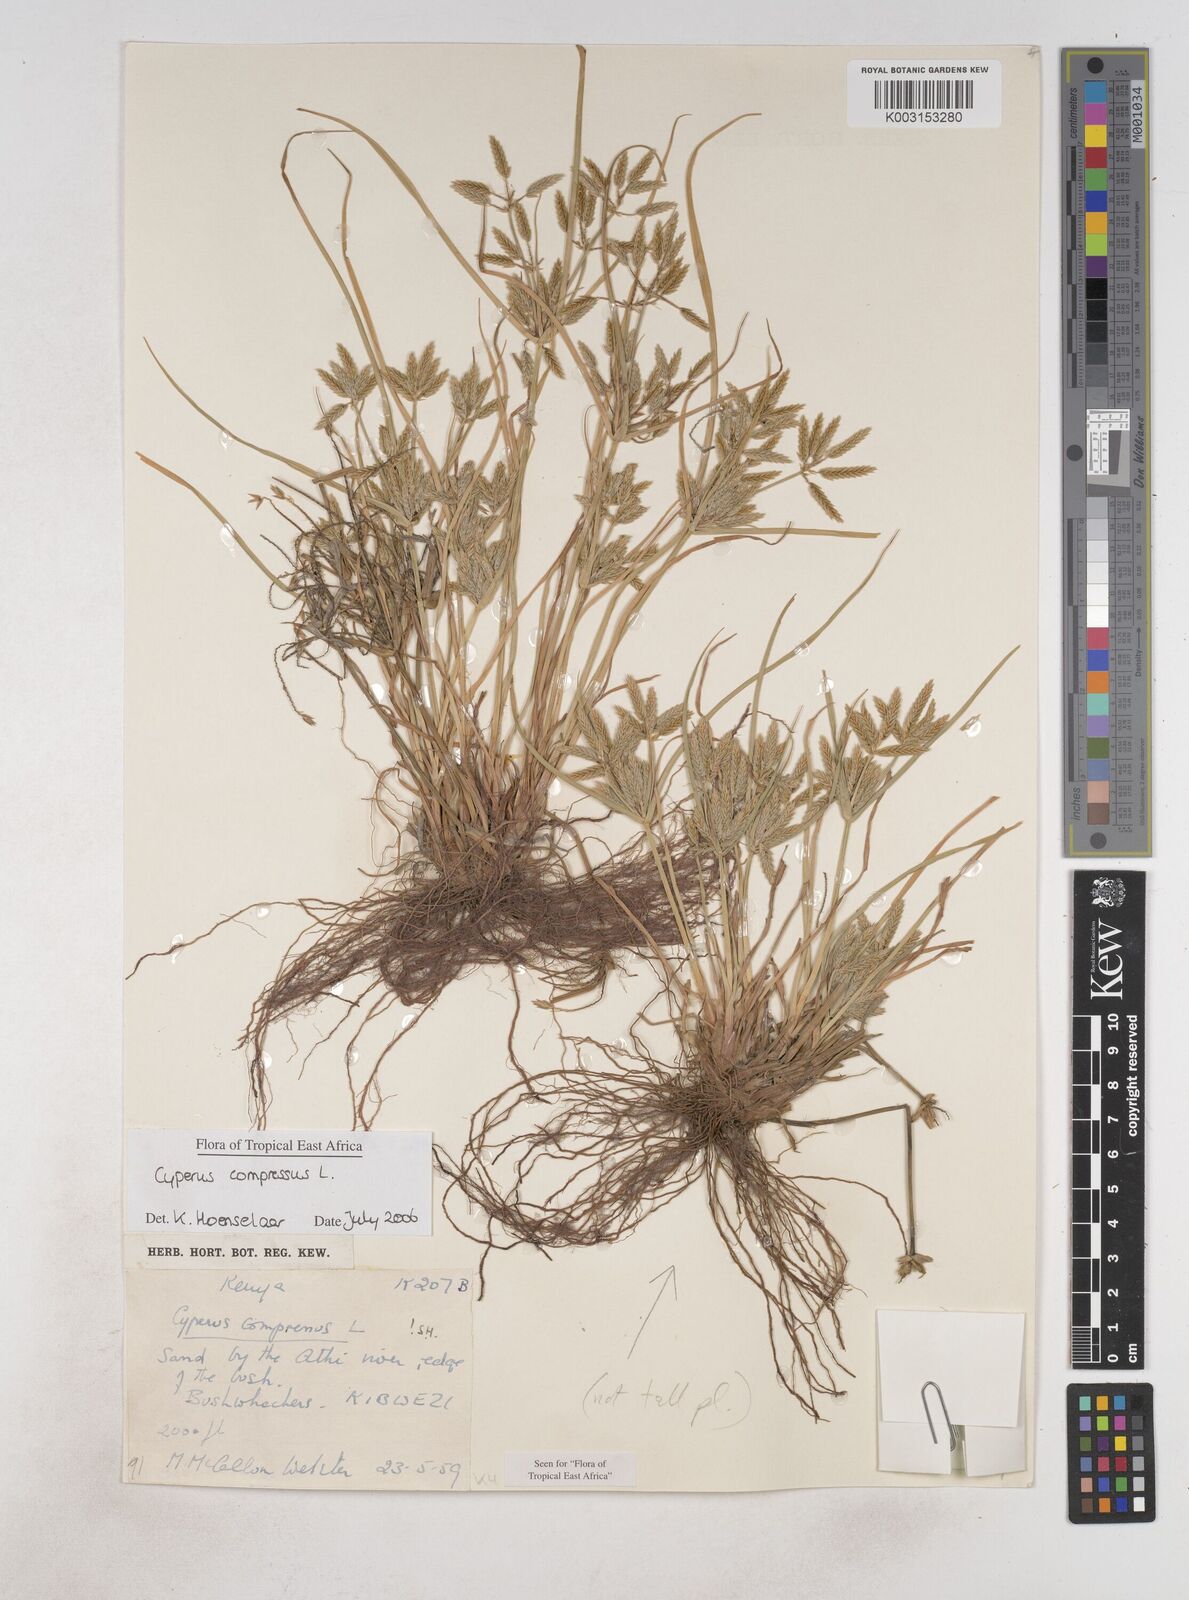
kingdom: Plantae
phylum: Tracheophyta
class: Liliopsida
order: Poales
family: Cyperaceae
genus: Cyperus
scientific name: Cyperus compressus
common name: Poorland flatsedge
